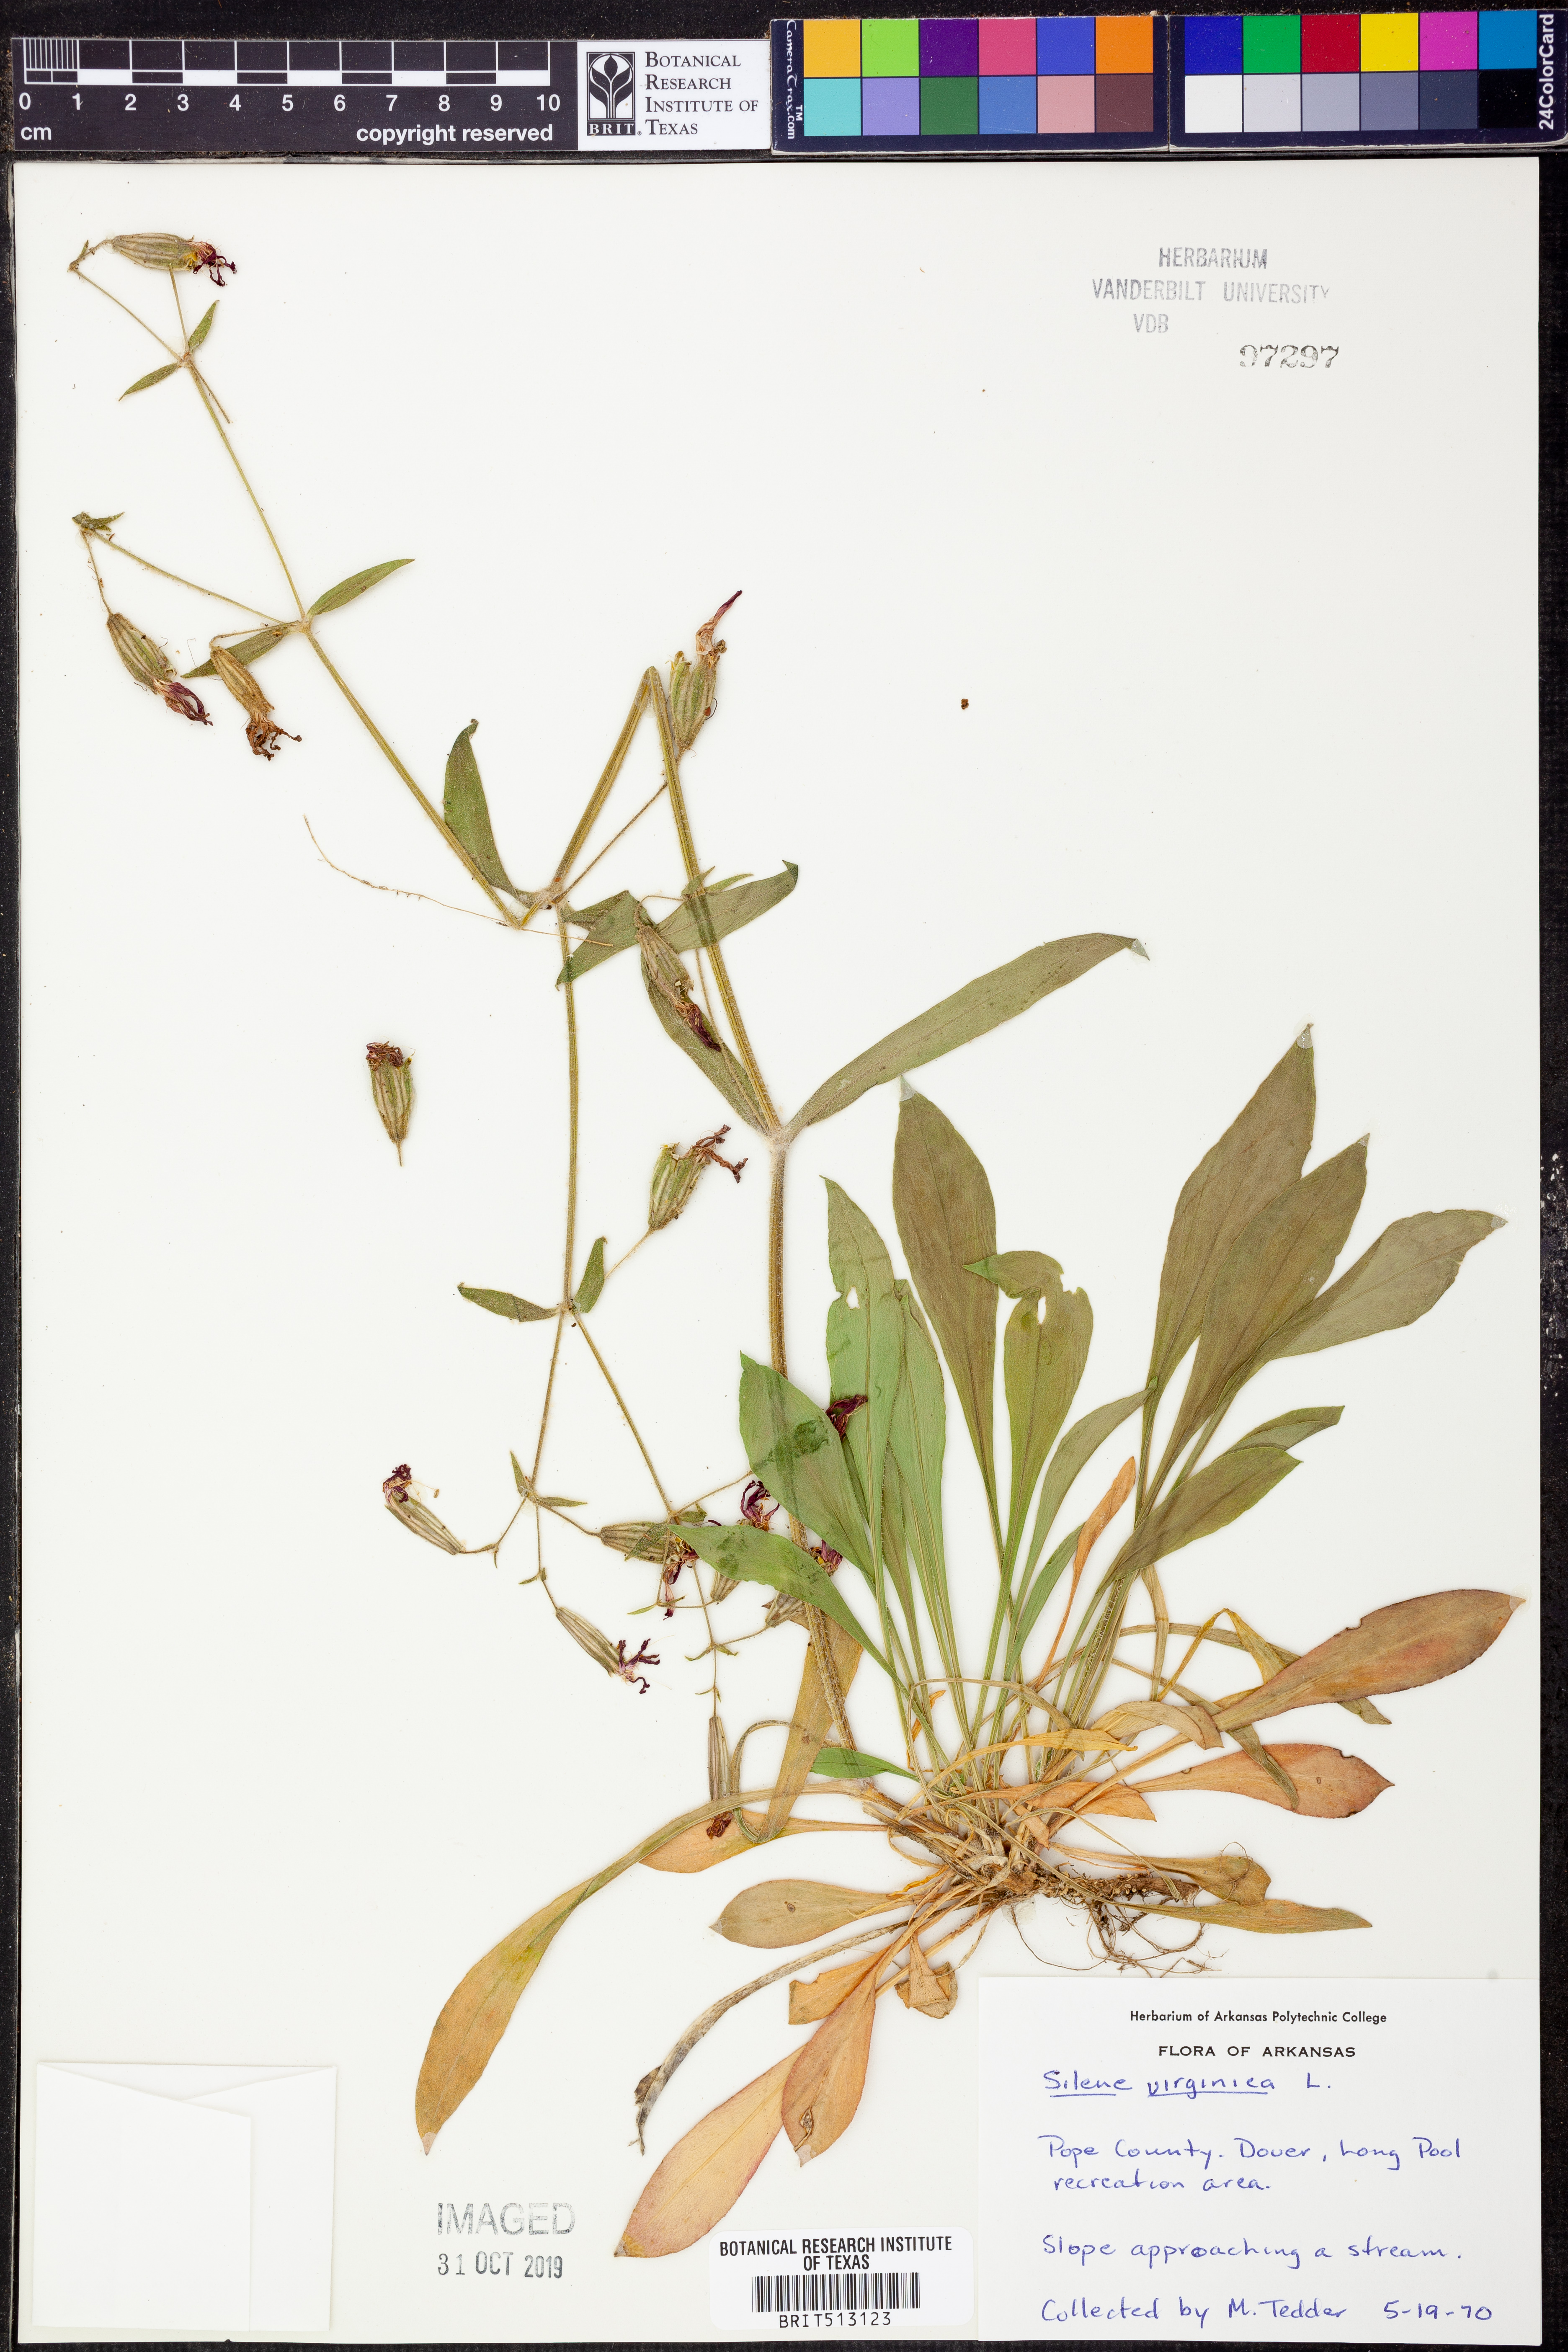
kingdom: Plantae
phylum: Tracheophyta
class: Magnoliopsida
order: Caryophyllales
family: Caryophyllaceae
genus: Silene
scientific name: Silene virginica
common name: Fire-pink
